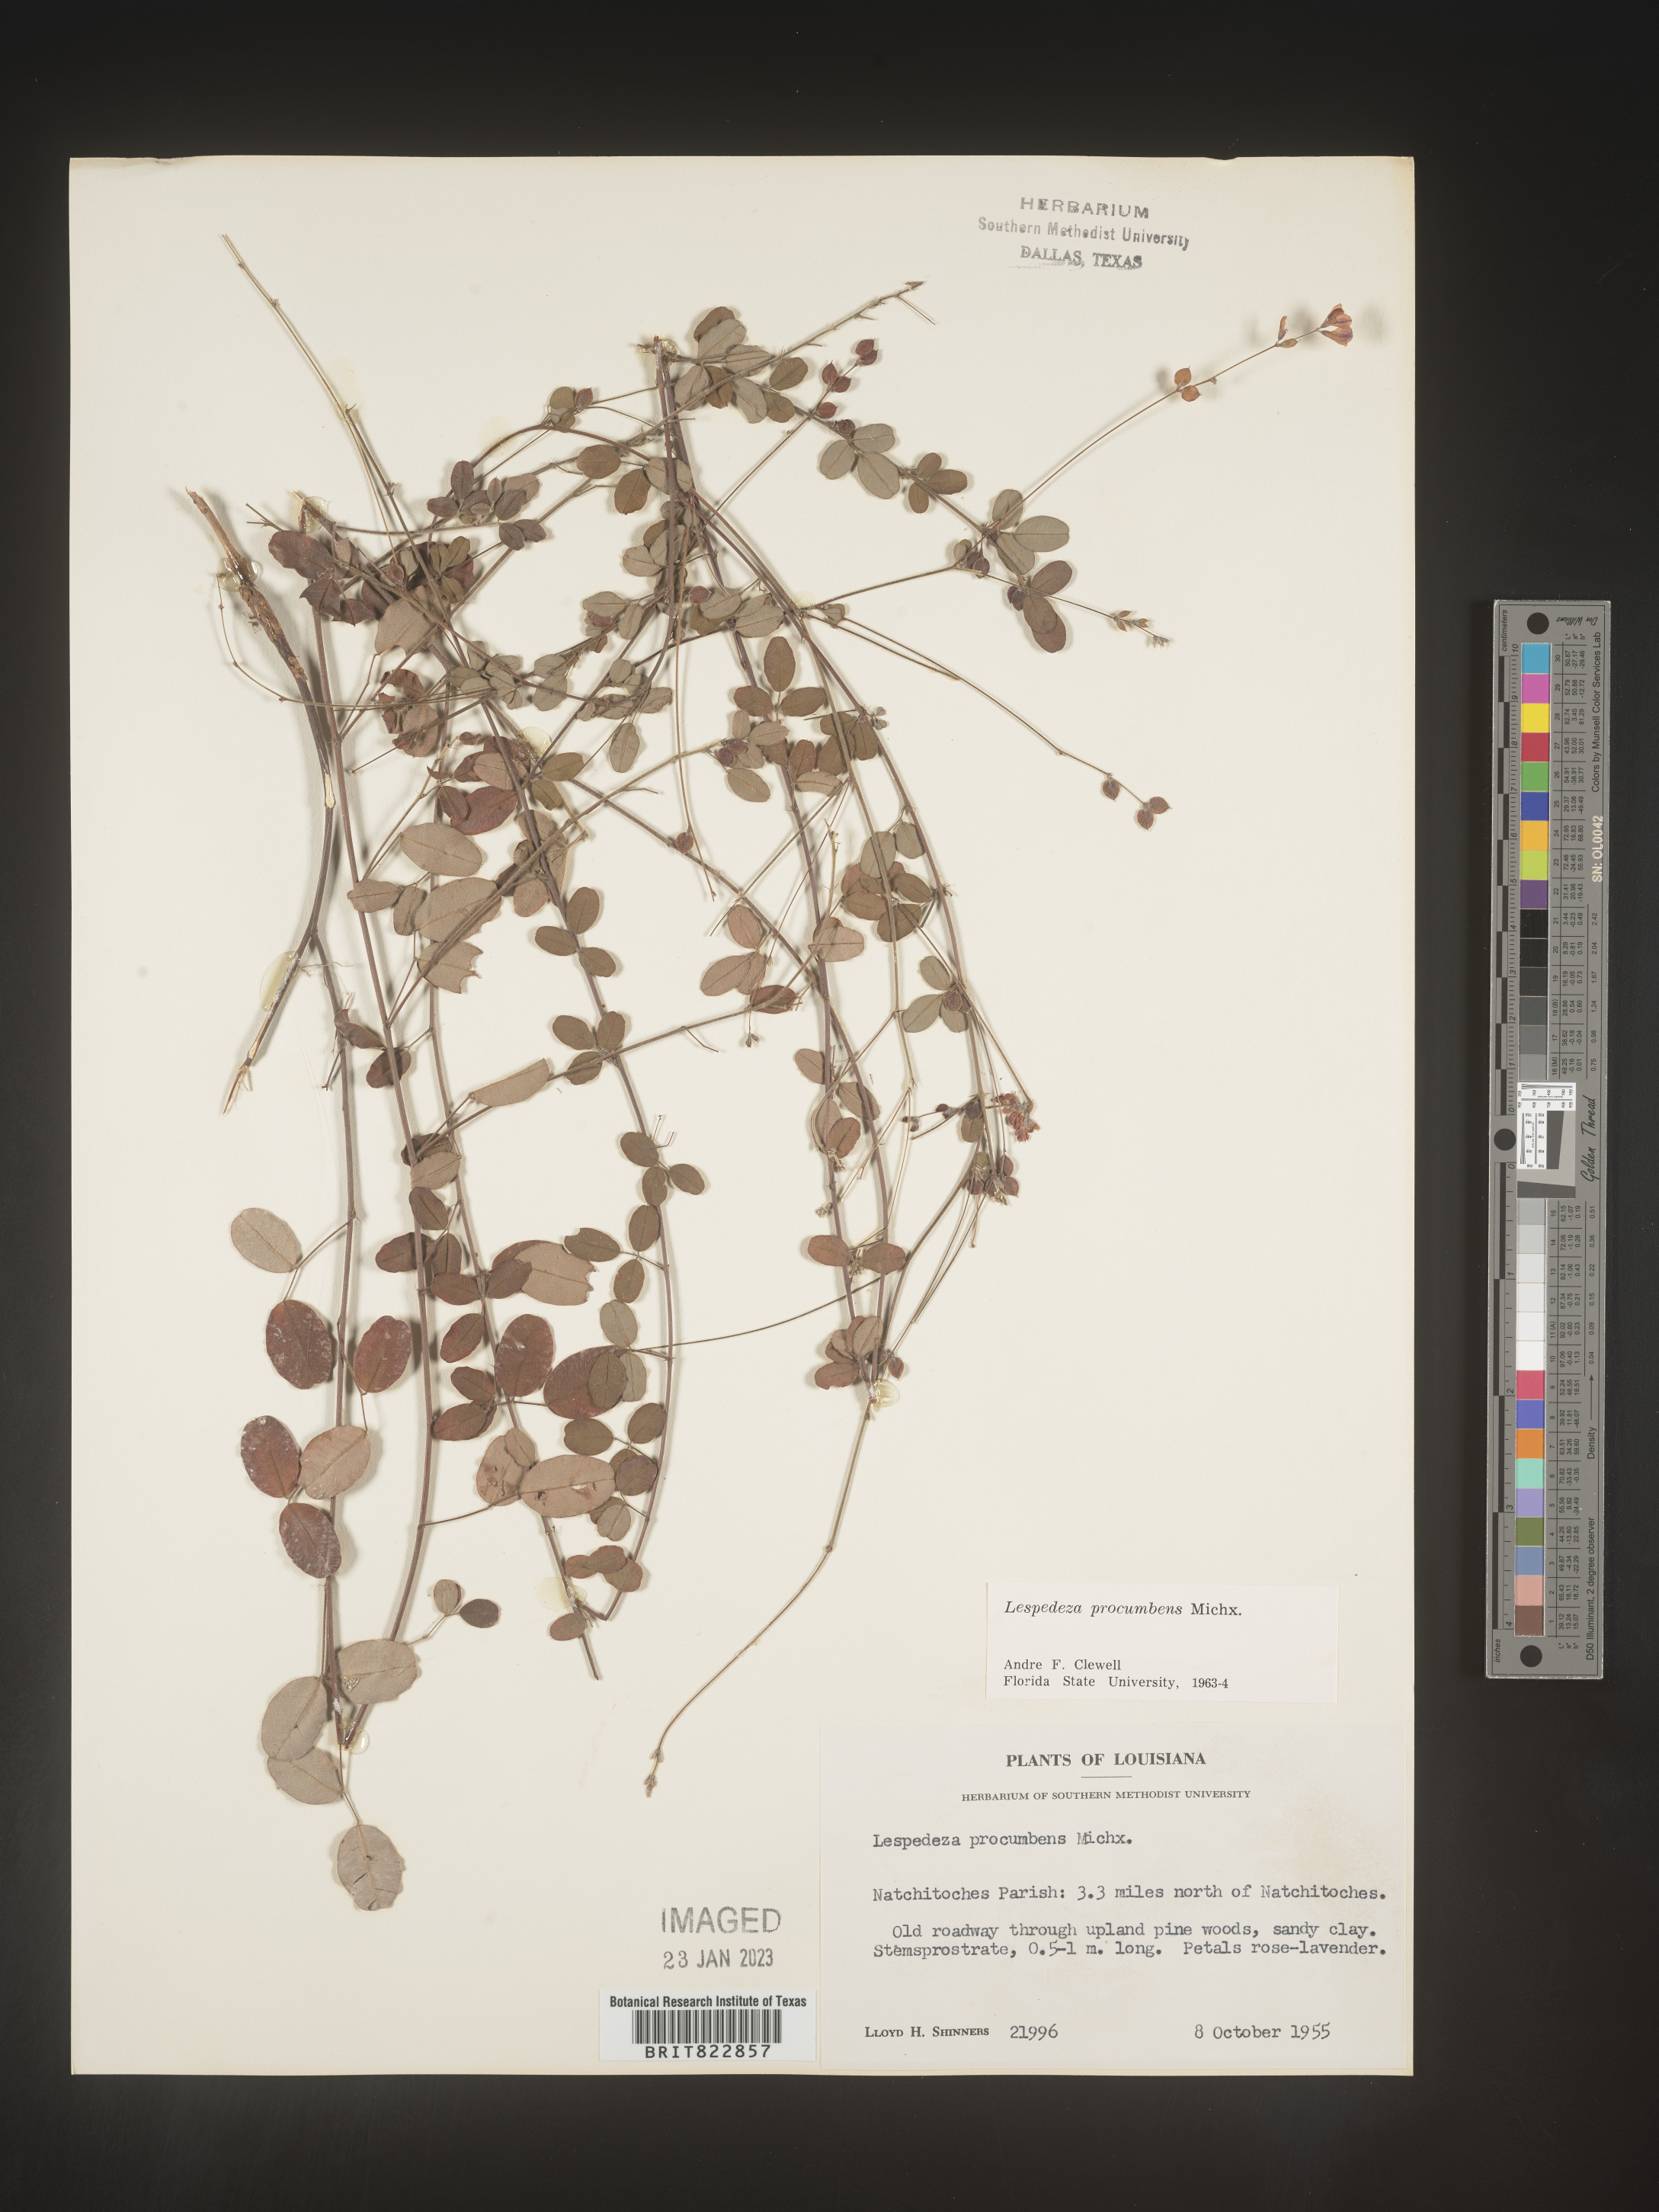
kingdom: Plantae
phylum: Tracheophyta
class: Magnoliopsida
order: Fabales
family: Fabaceae
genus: Lespedeza
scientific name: Lespedeza procumbens
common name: Downy trailing bush-clover
